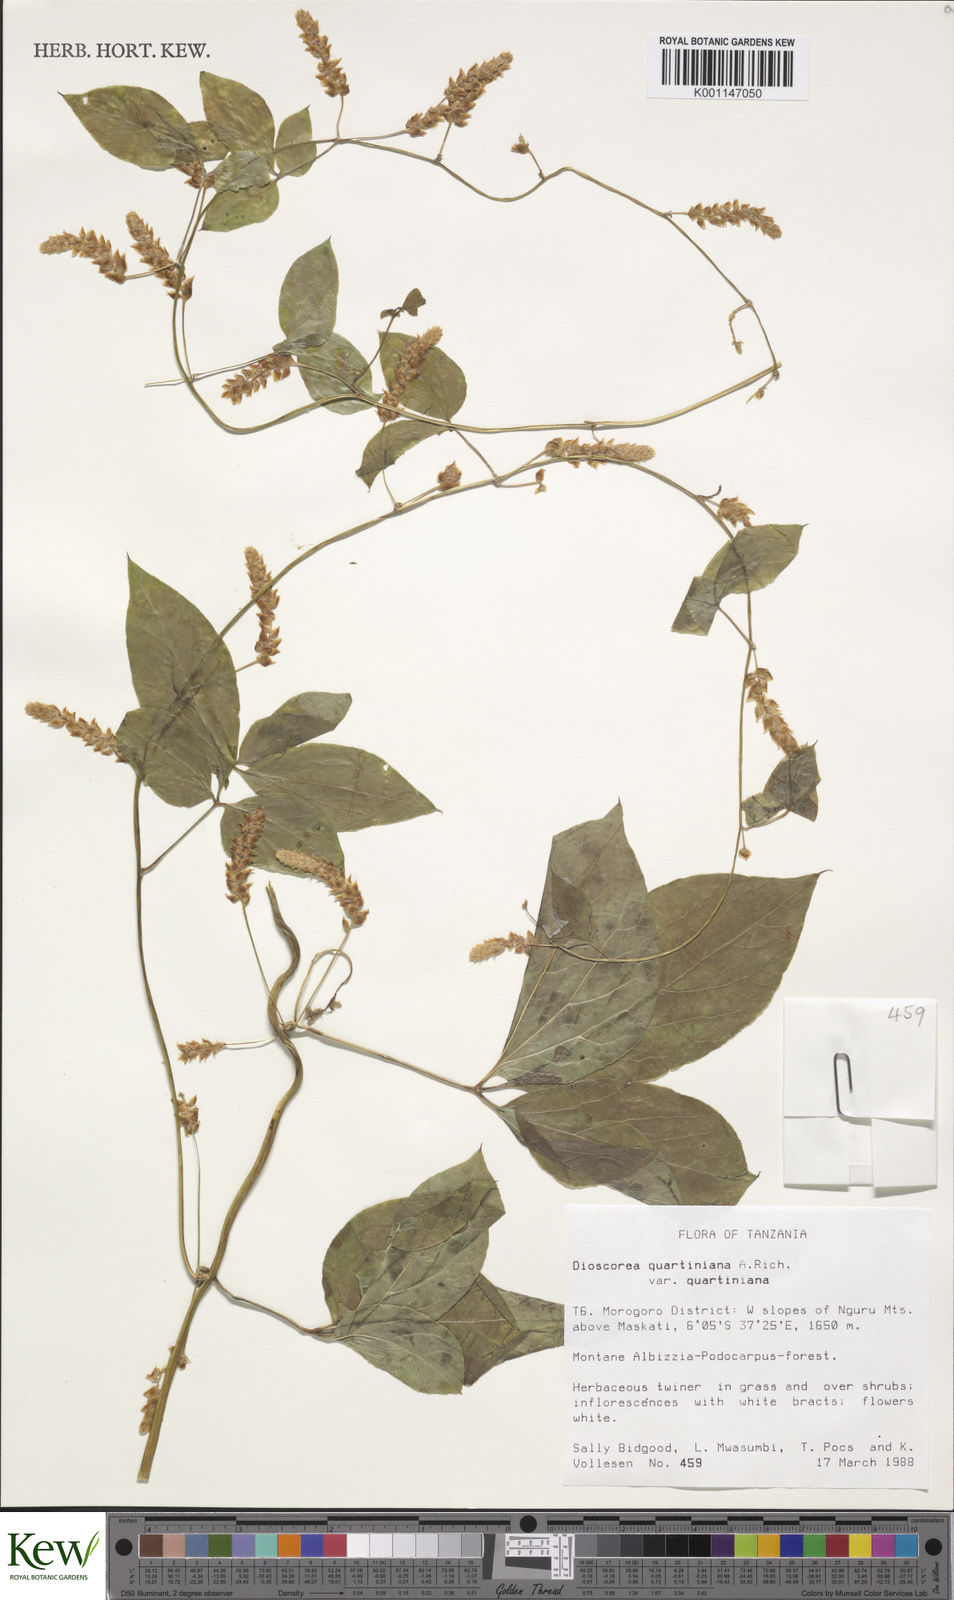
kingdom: Plantae
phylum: Tracheophyta
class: Liliopsida
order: Dioscoreales
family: Dioscoreaceae
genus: Dioscorea
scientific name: Dioscorea quartiniana
